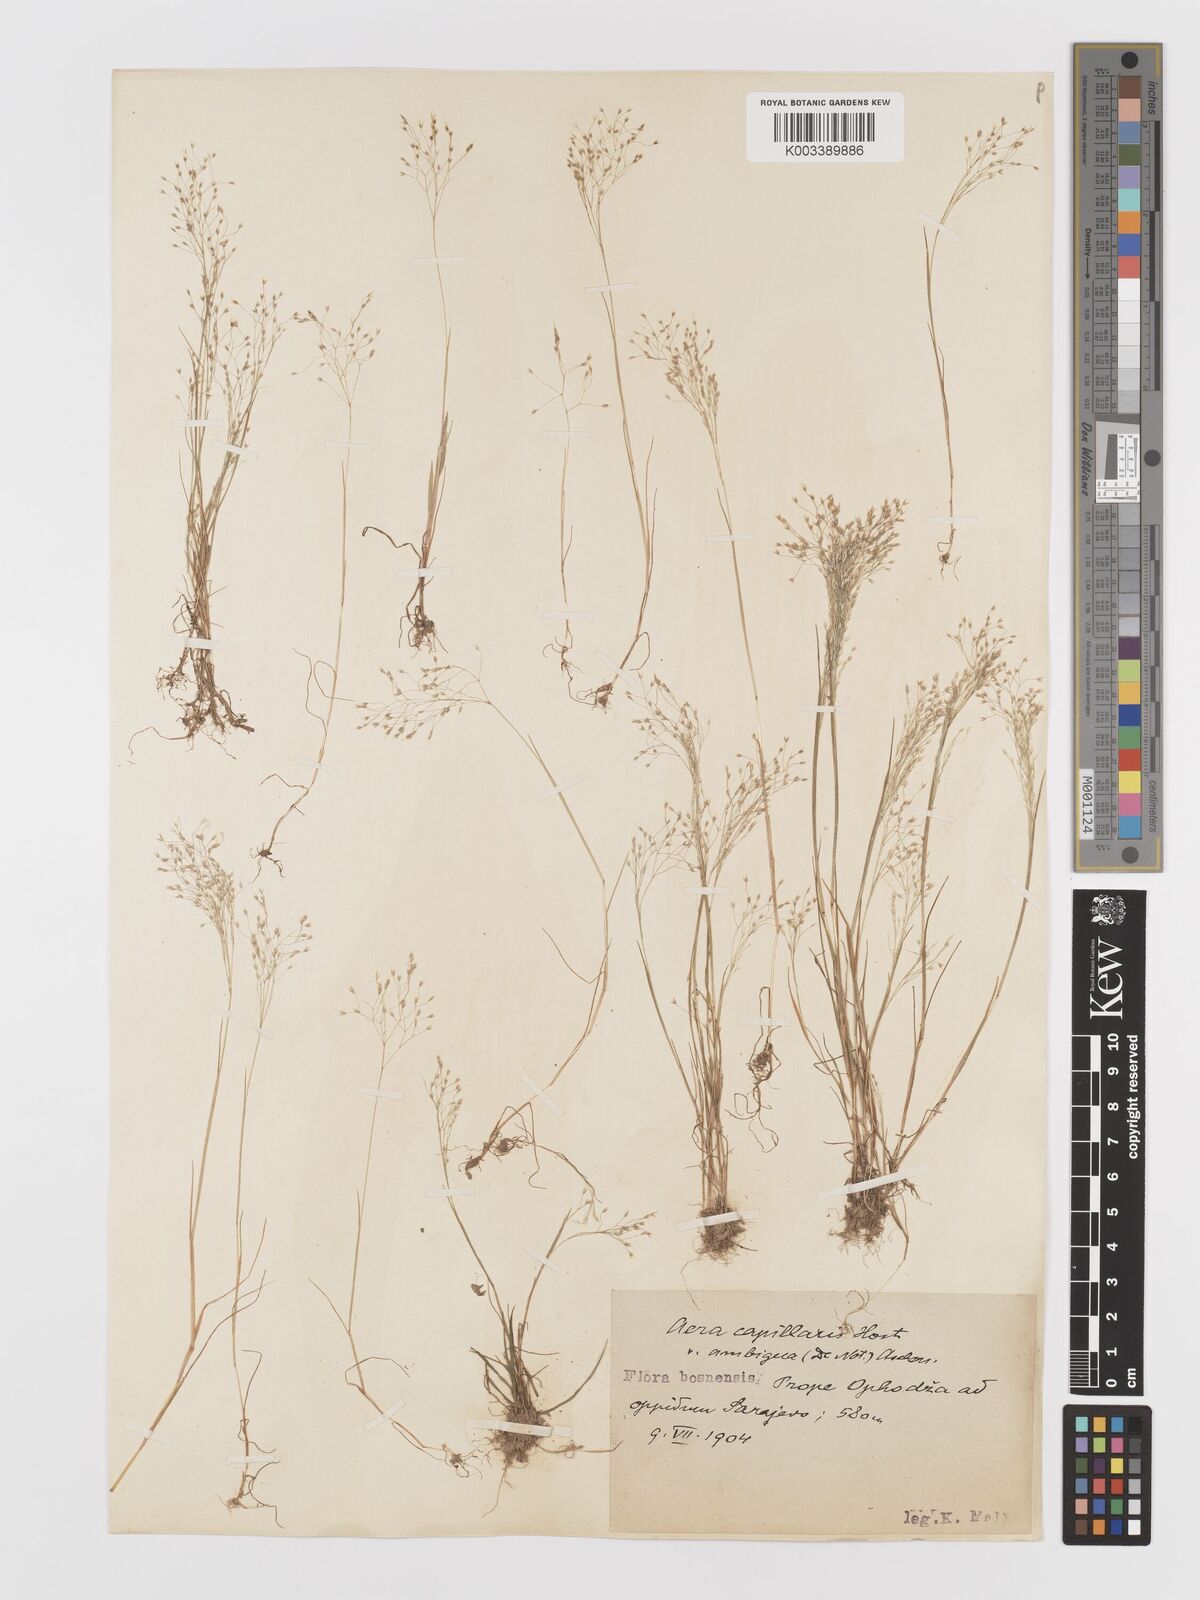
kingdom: Plantae
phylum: Tracheophyta
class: Liliopsida
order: Poales
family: Poaceae
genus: Aira
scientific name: Aira elegans
